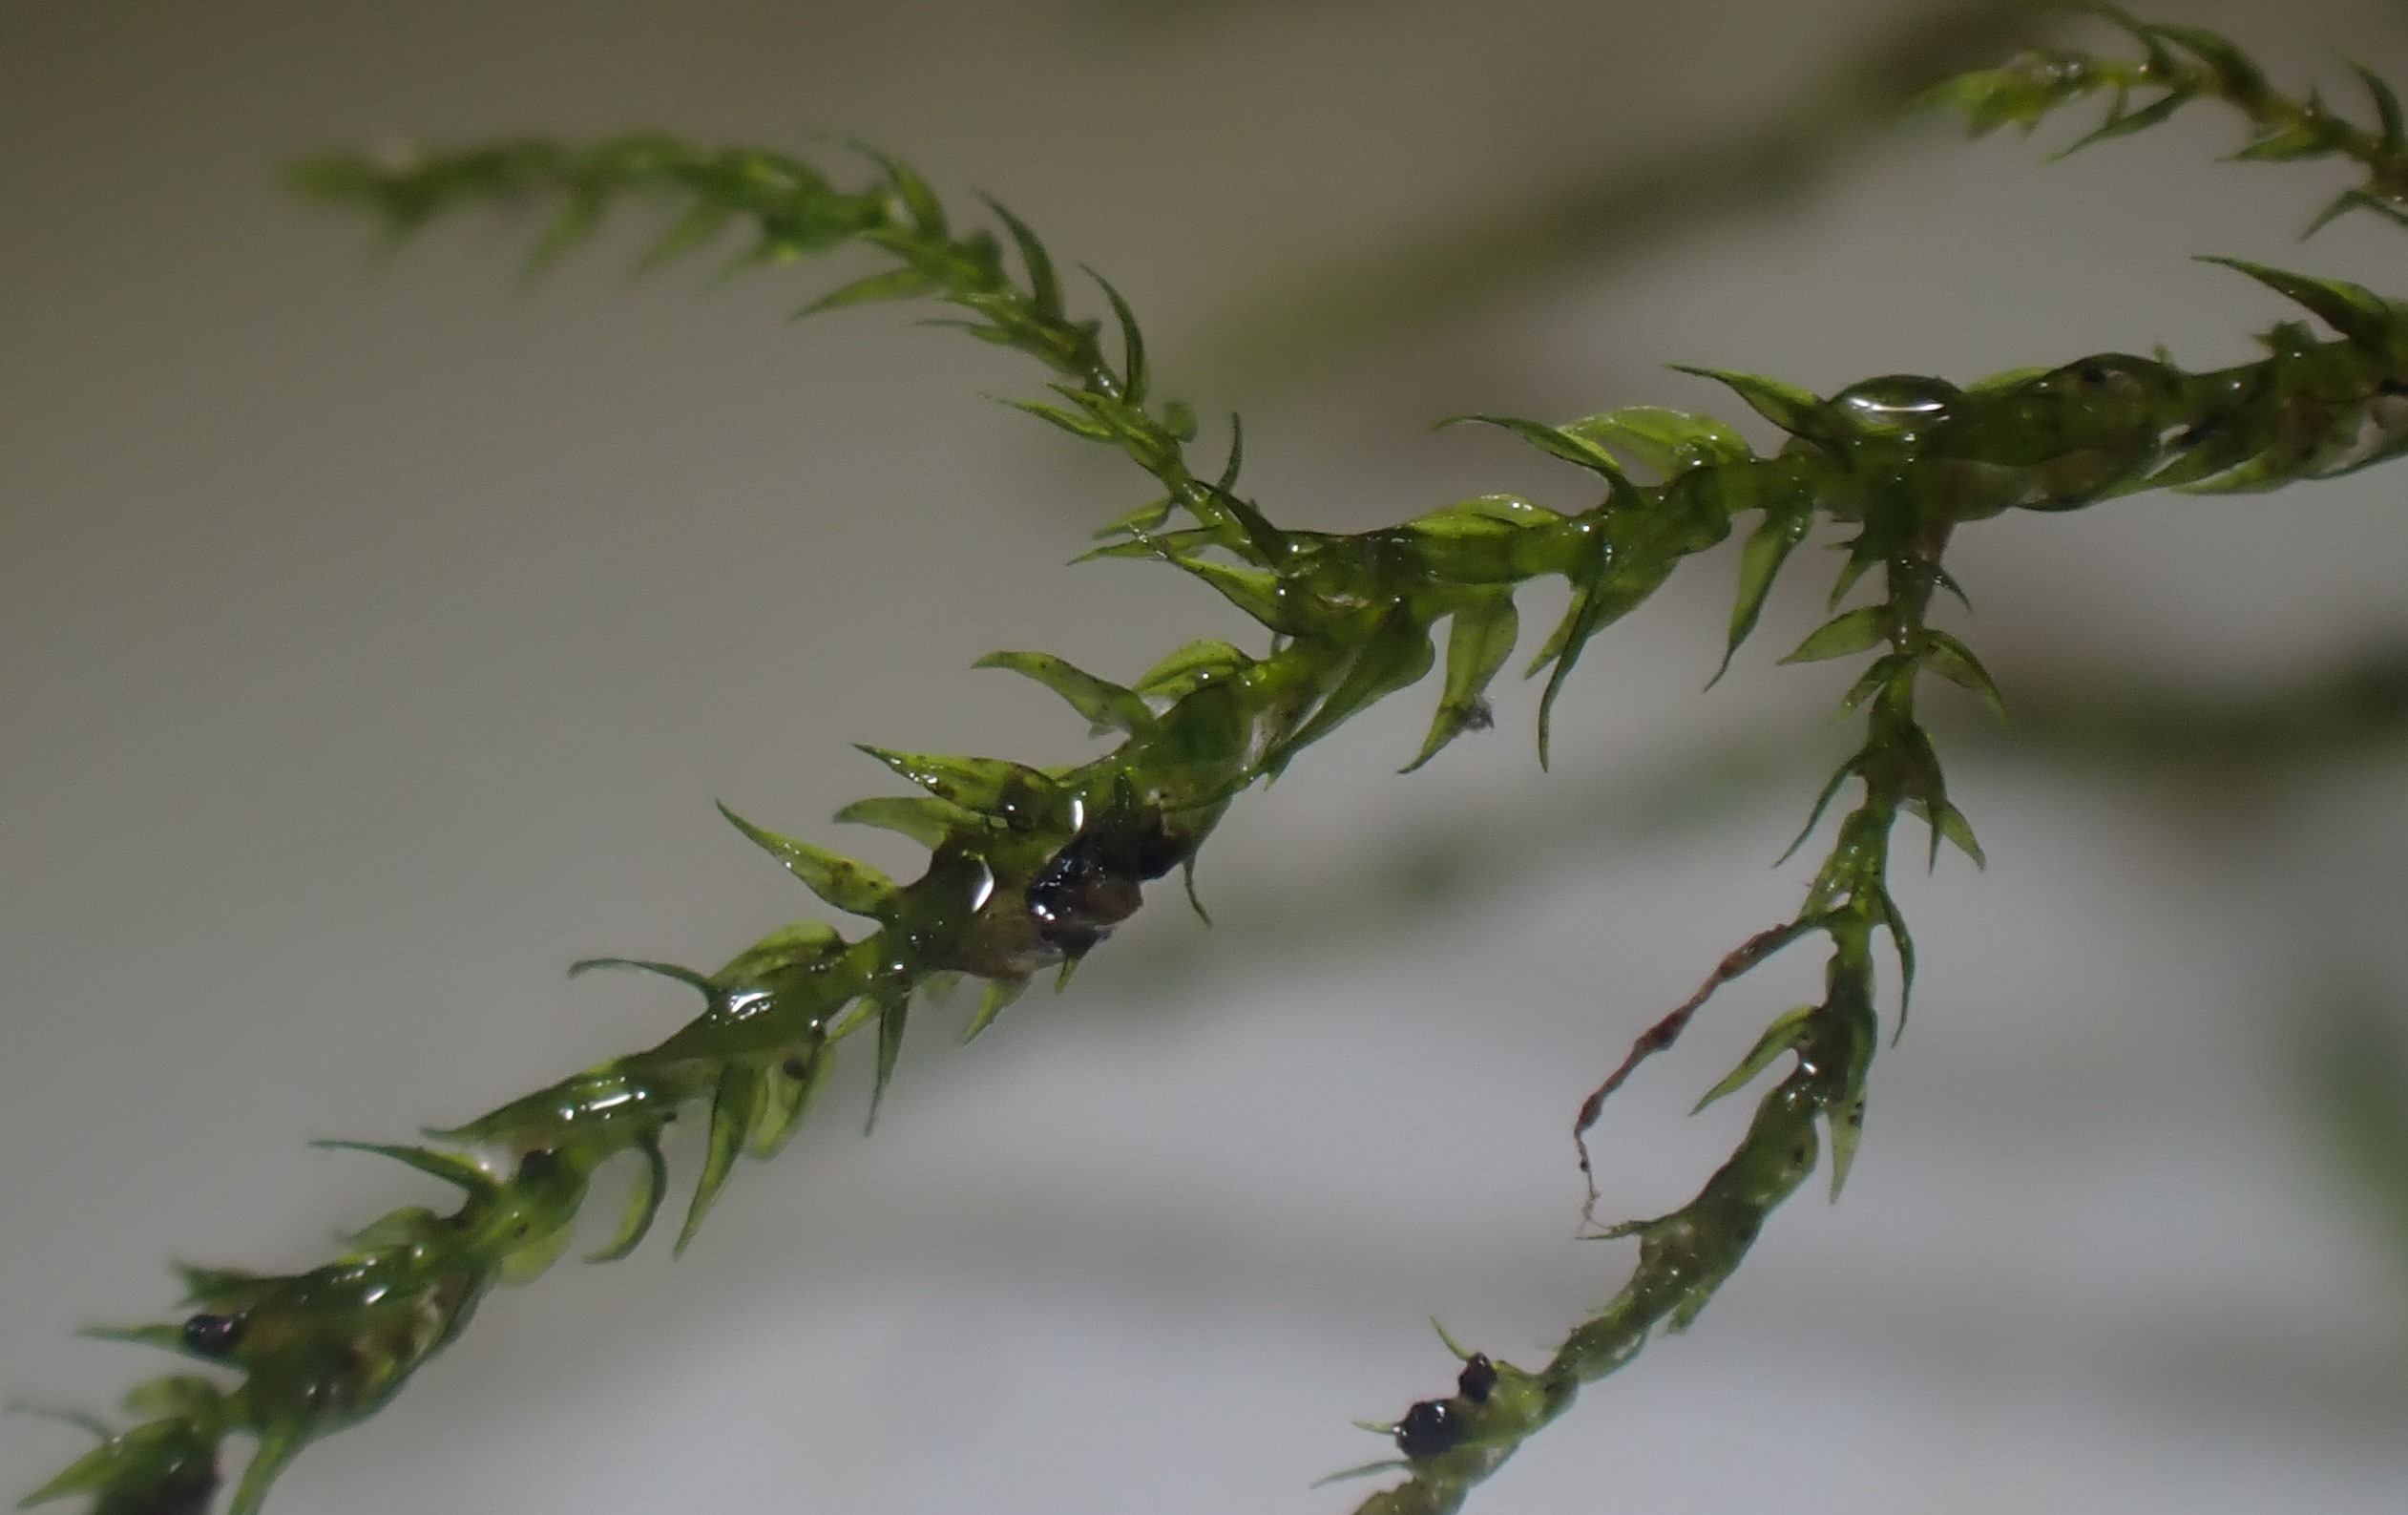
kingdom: Plantae
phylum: Bryophyta
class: Bryopsida
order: Hypnales
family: Amblystegiaceae
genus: Hygroamblystegium
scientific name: Hygroamblystegium tenax
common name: Stiv vandkrybmos
